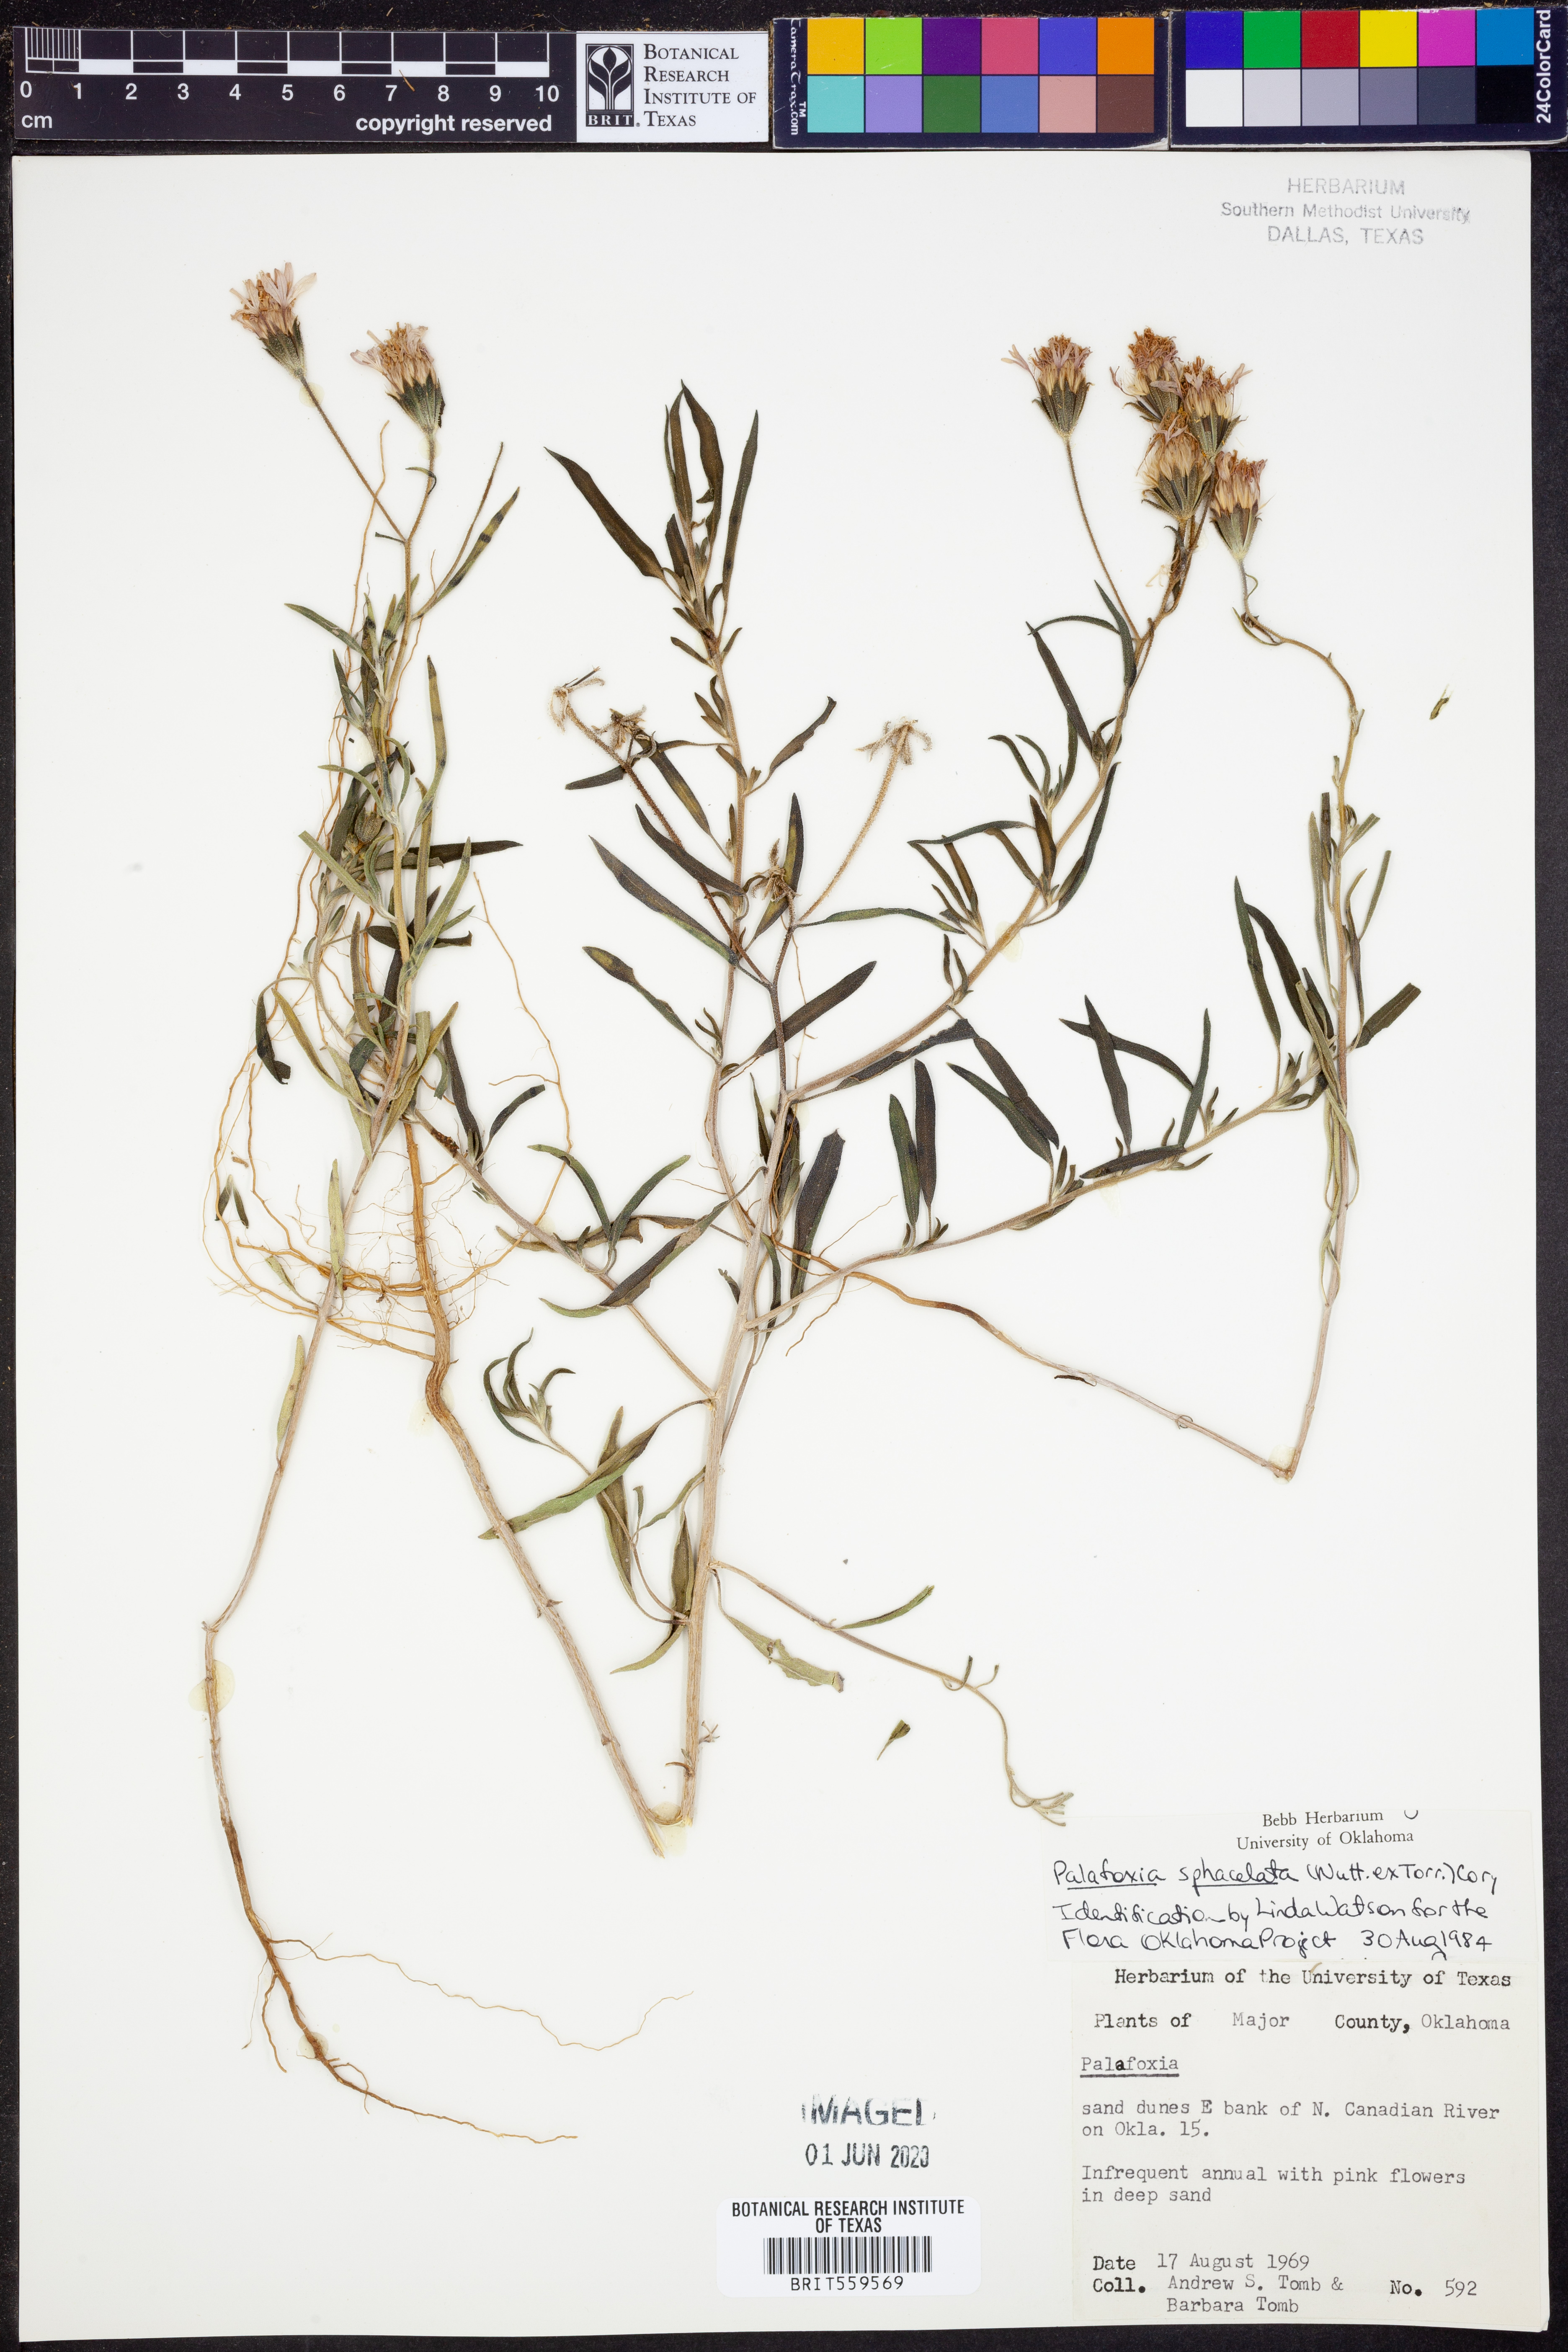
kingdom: Plantae
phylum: Tracheophyta
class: Magnoliopsida
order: Asterales
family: Asteraceae
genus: Palafoxia
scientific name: Palafoxia sphacelata
